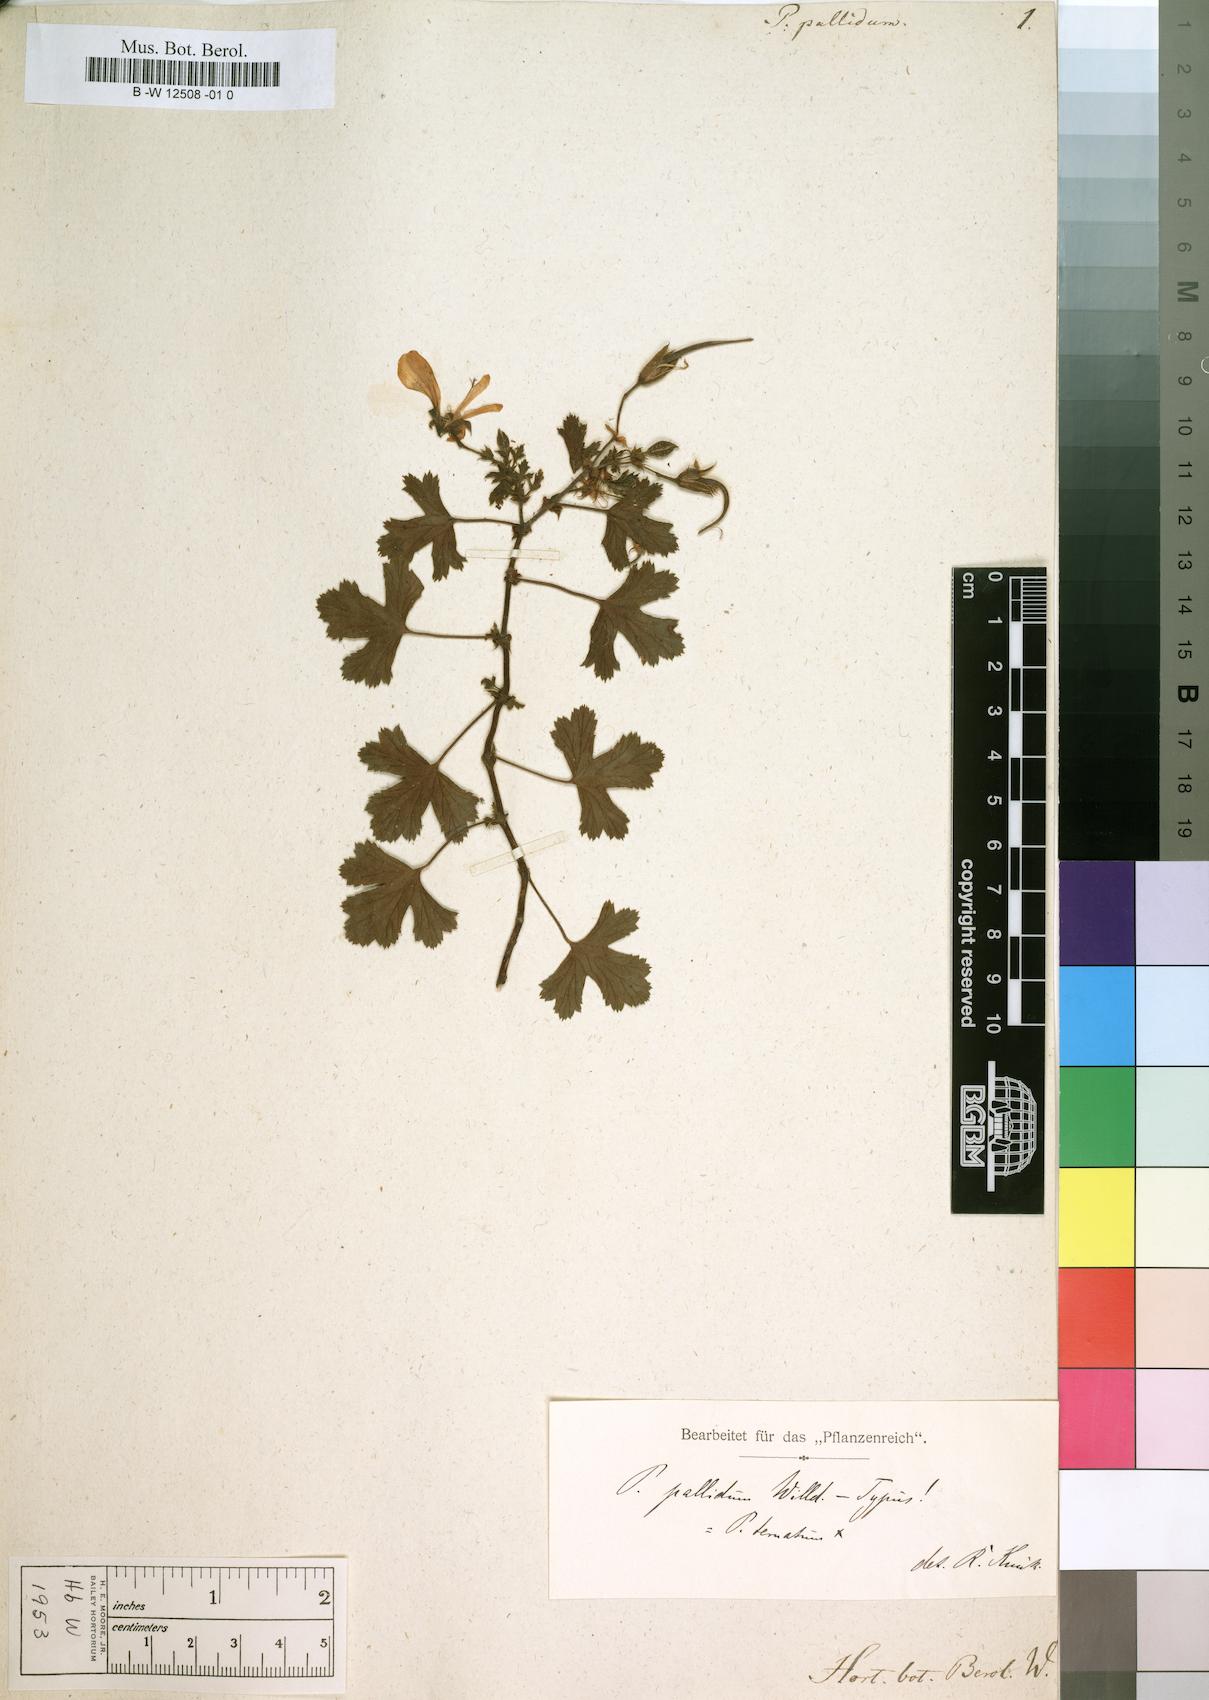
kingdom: Plantae
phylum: Tracheophyta
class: Magnoliopsida
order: Geraniales
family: Geraniaceae
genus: Pelargonium
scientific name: Pelargonium pallidum
